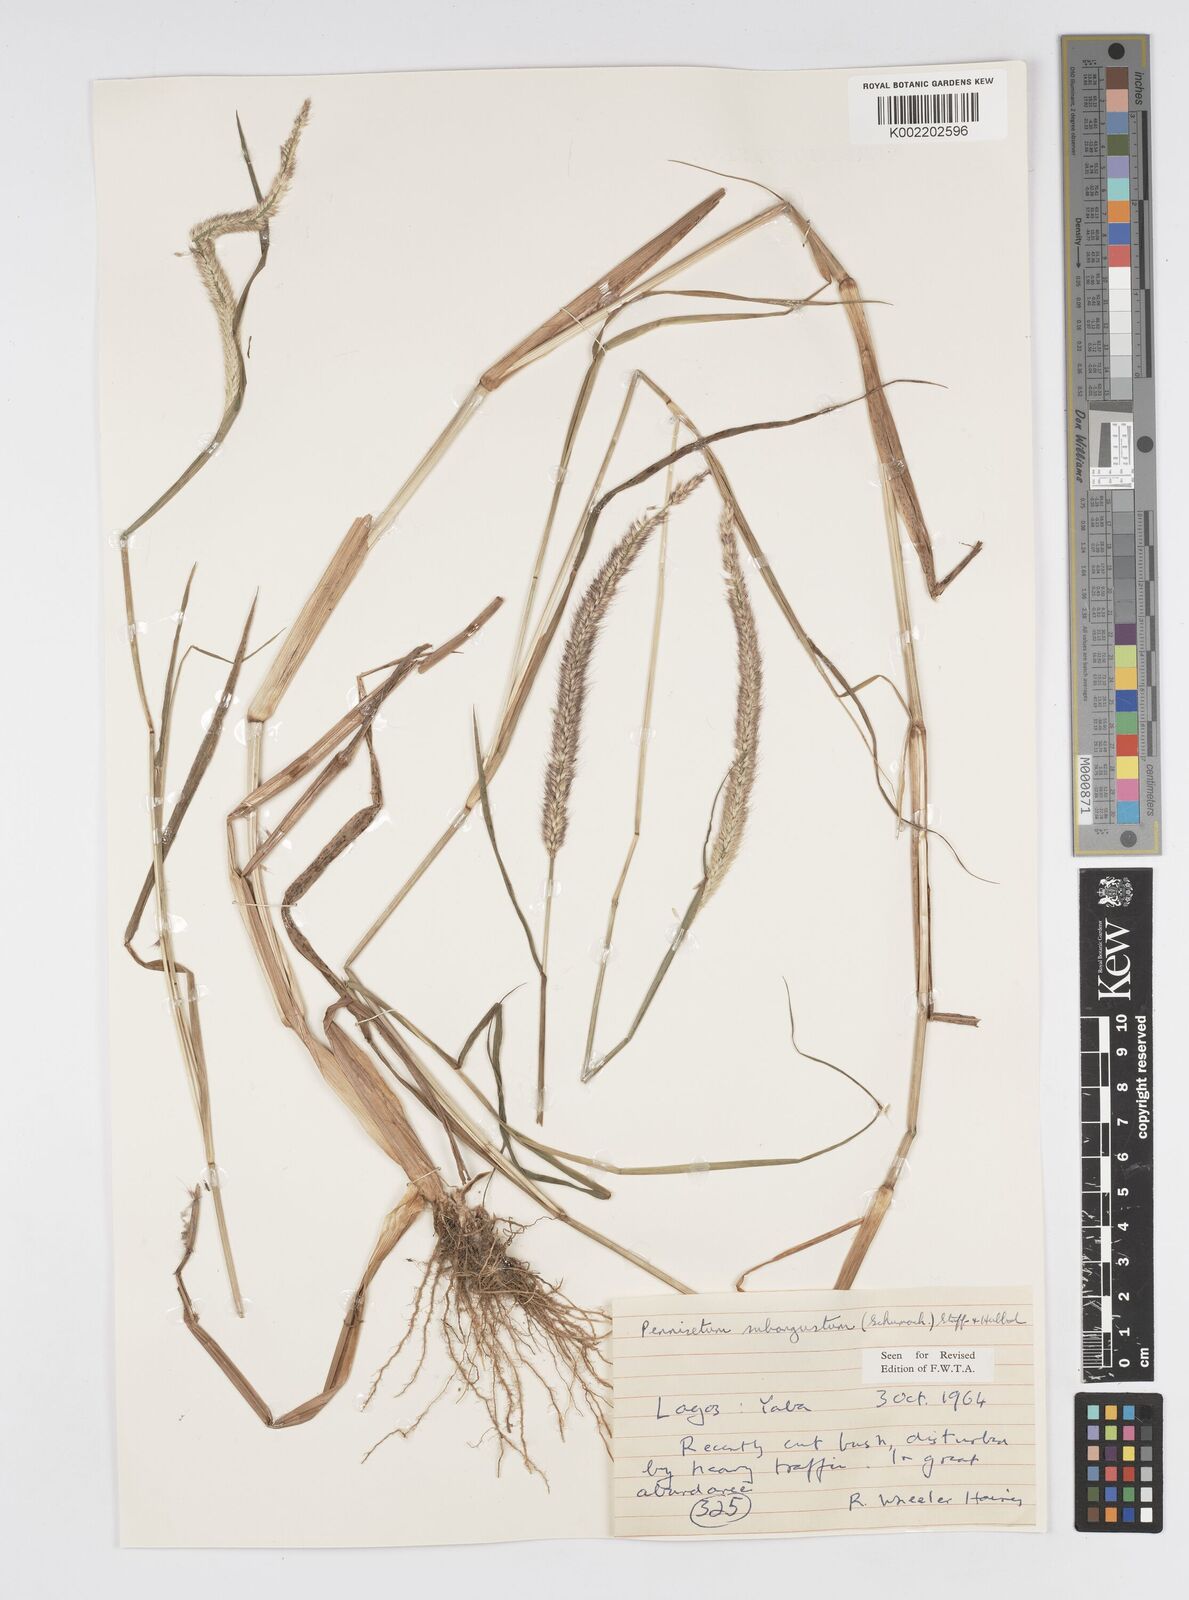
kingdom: Plantae
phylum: Tracheophyta
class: Liliopsida
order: Poales
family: Poaceae
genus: Setaria
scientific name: Setaria parviflora
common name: Knotroot bristle-grass
